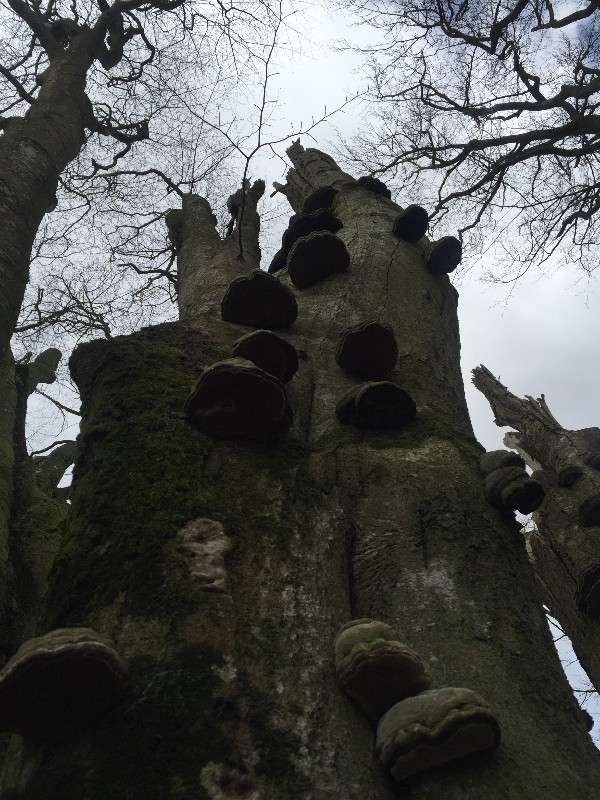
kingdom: Fungi
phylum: Basidiomycota
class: Agaricomycetes
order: Polyporales
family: Polyporaceae
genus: Fomes
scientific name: Fomes fomentarius
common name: tøndersvamp
